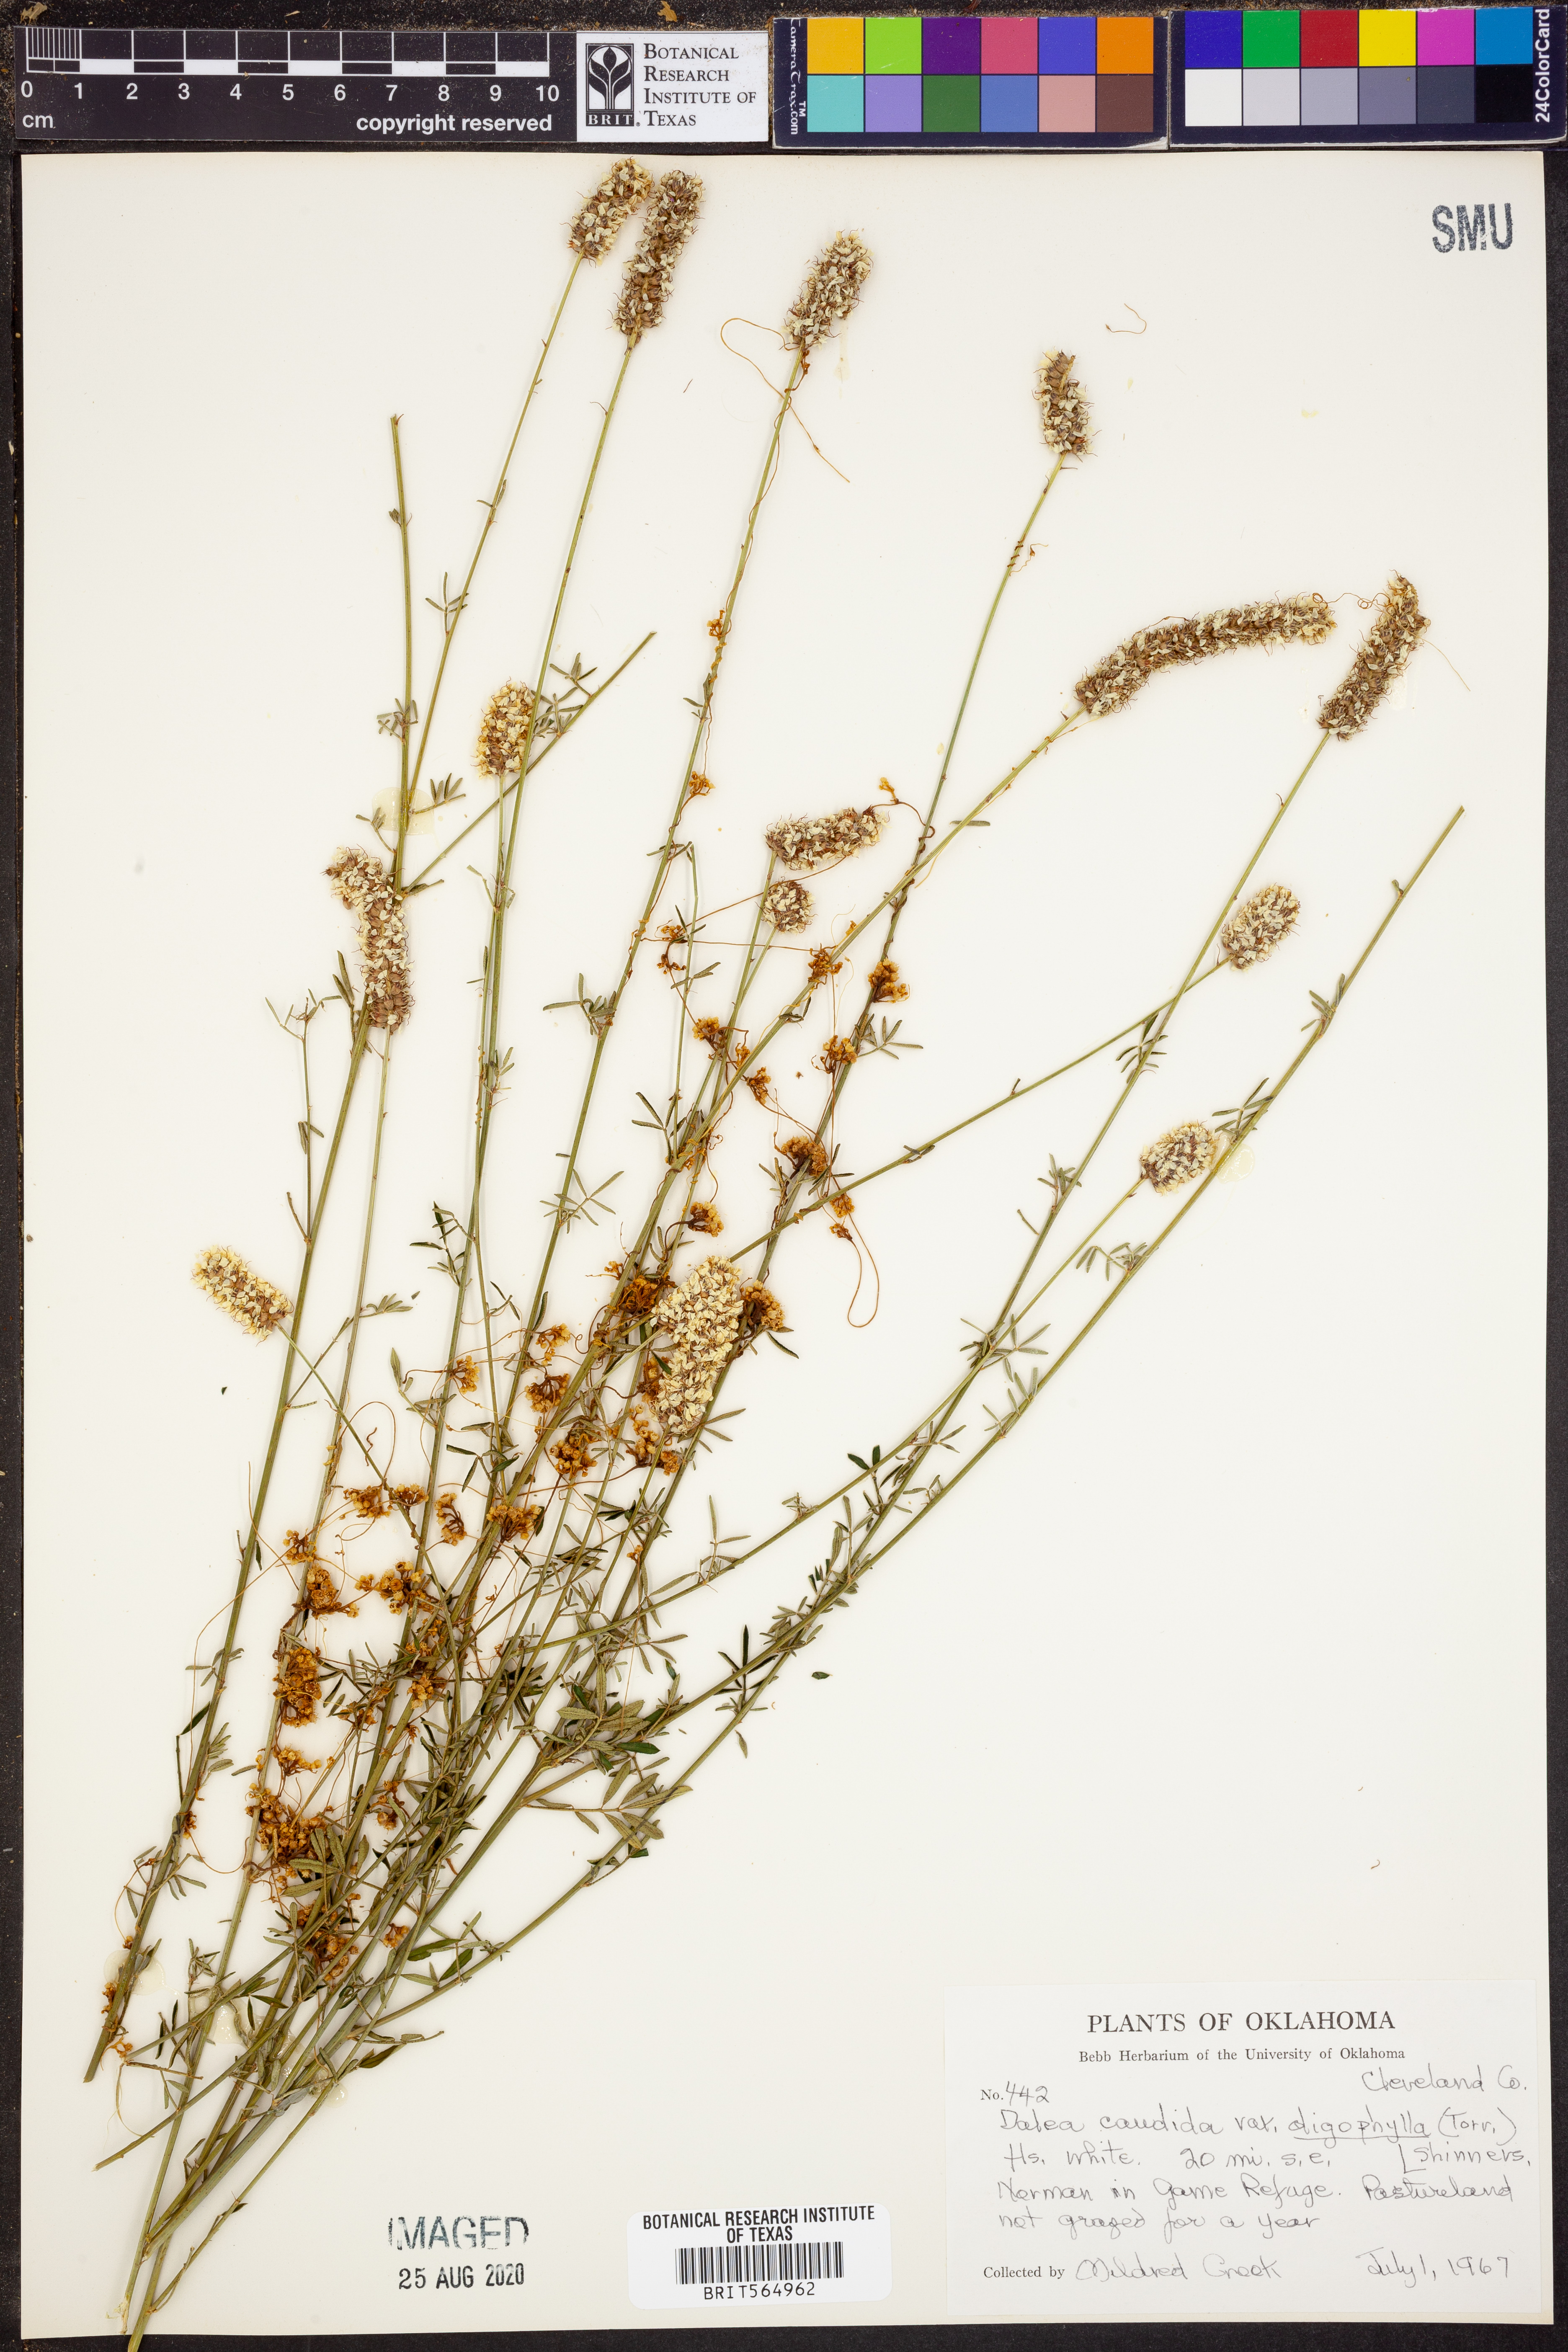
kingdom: Plantae
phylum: Tracheophyta
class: Magnoliopsida
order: Fabales
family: Fabaceae
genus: Dalea
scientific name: Dalea candida
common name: White prairie-clover
